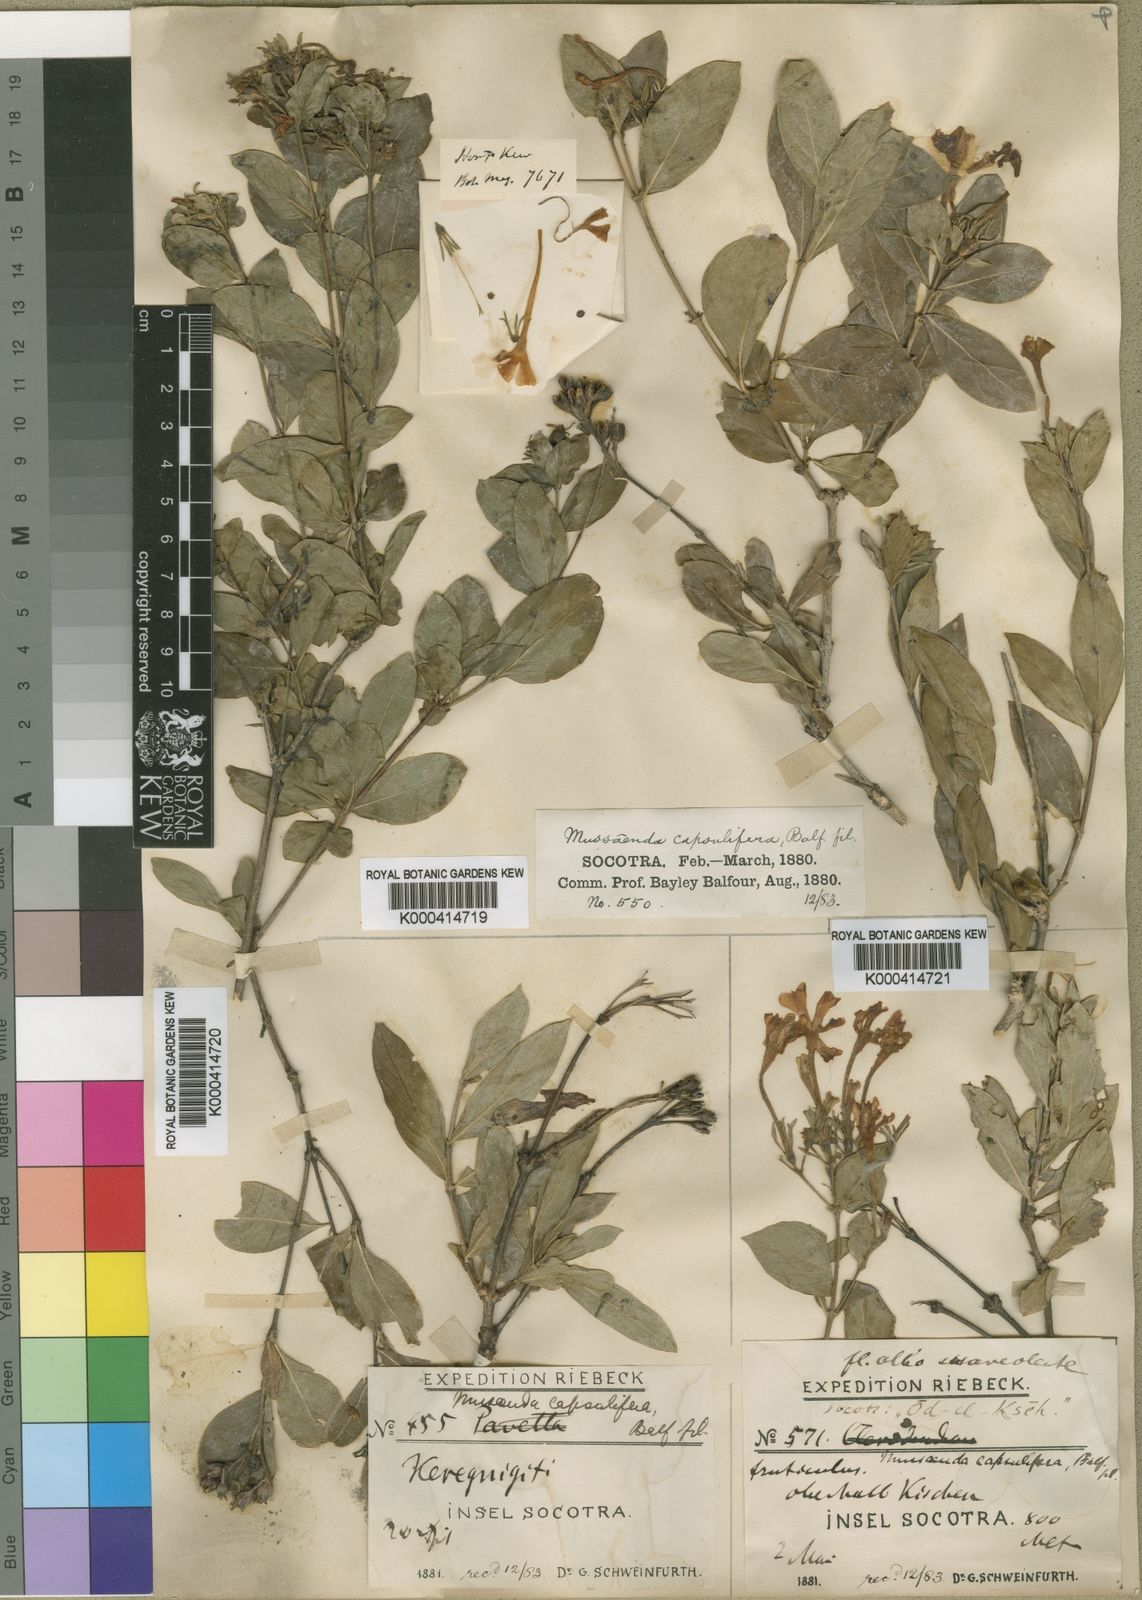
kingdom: Plantae
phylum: Tracheophyta
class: Magnoliopsida
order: Gentianales
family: Rubiaceae
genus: Tamridaea
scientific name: Tamridaea capsulifera
